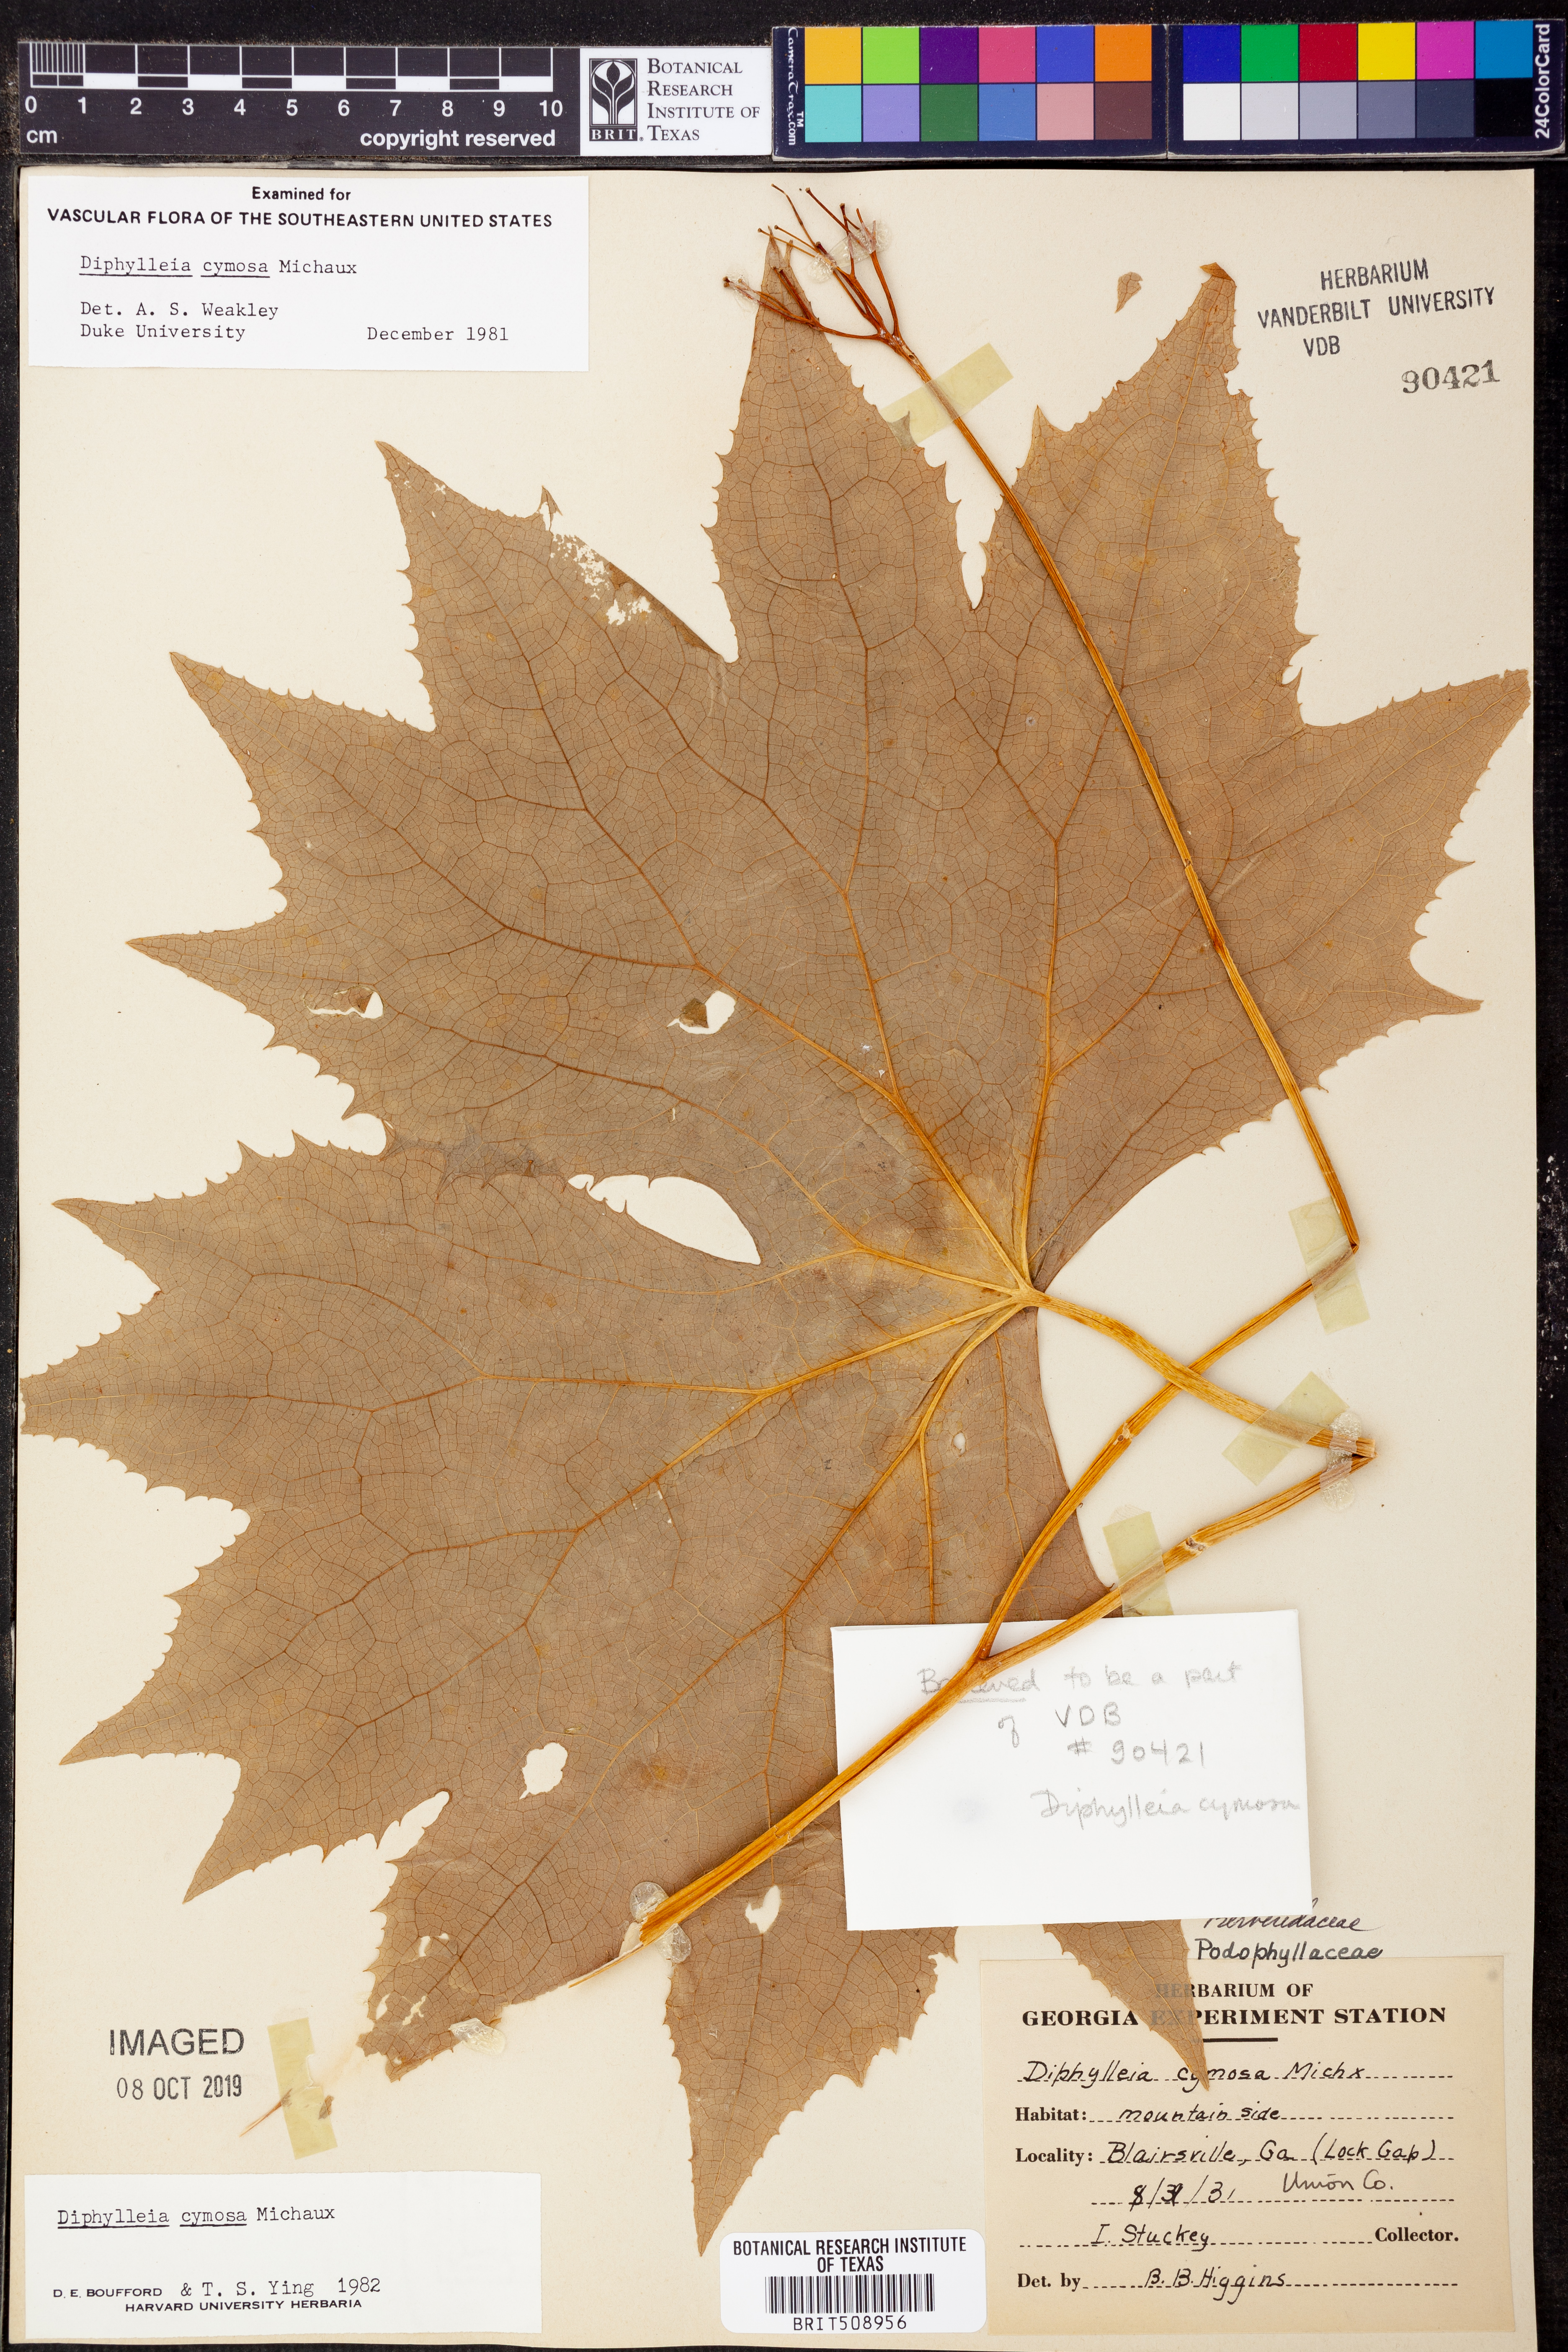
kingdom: Plantae
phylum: Tracheophyta
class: Magnoliopsida
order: Ranunculales
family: Berberidaceae
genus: Diphylleia
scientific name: Diphylleia cymosa
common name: Umbrella-leaf
